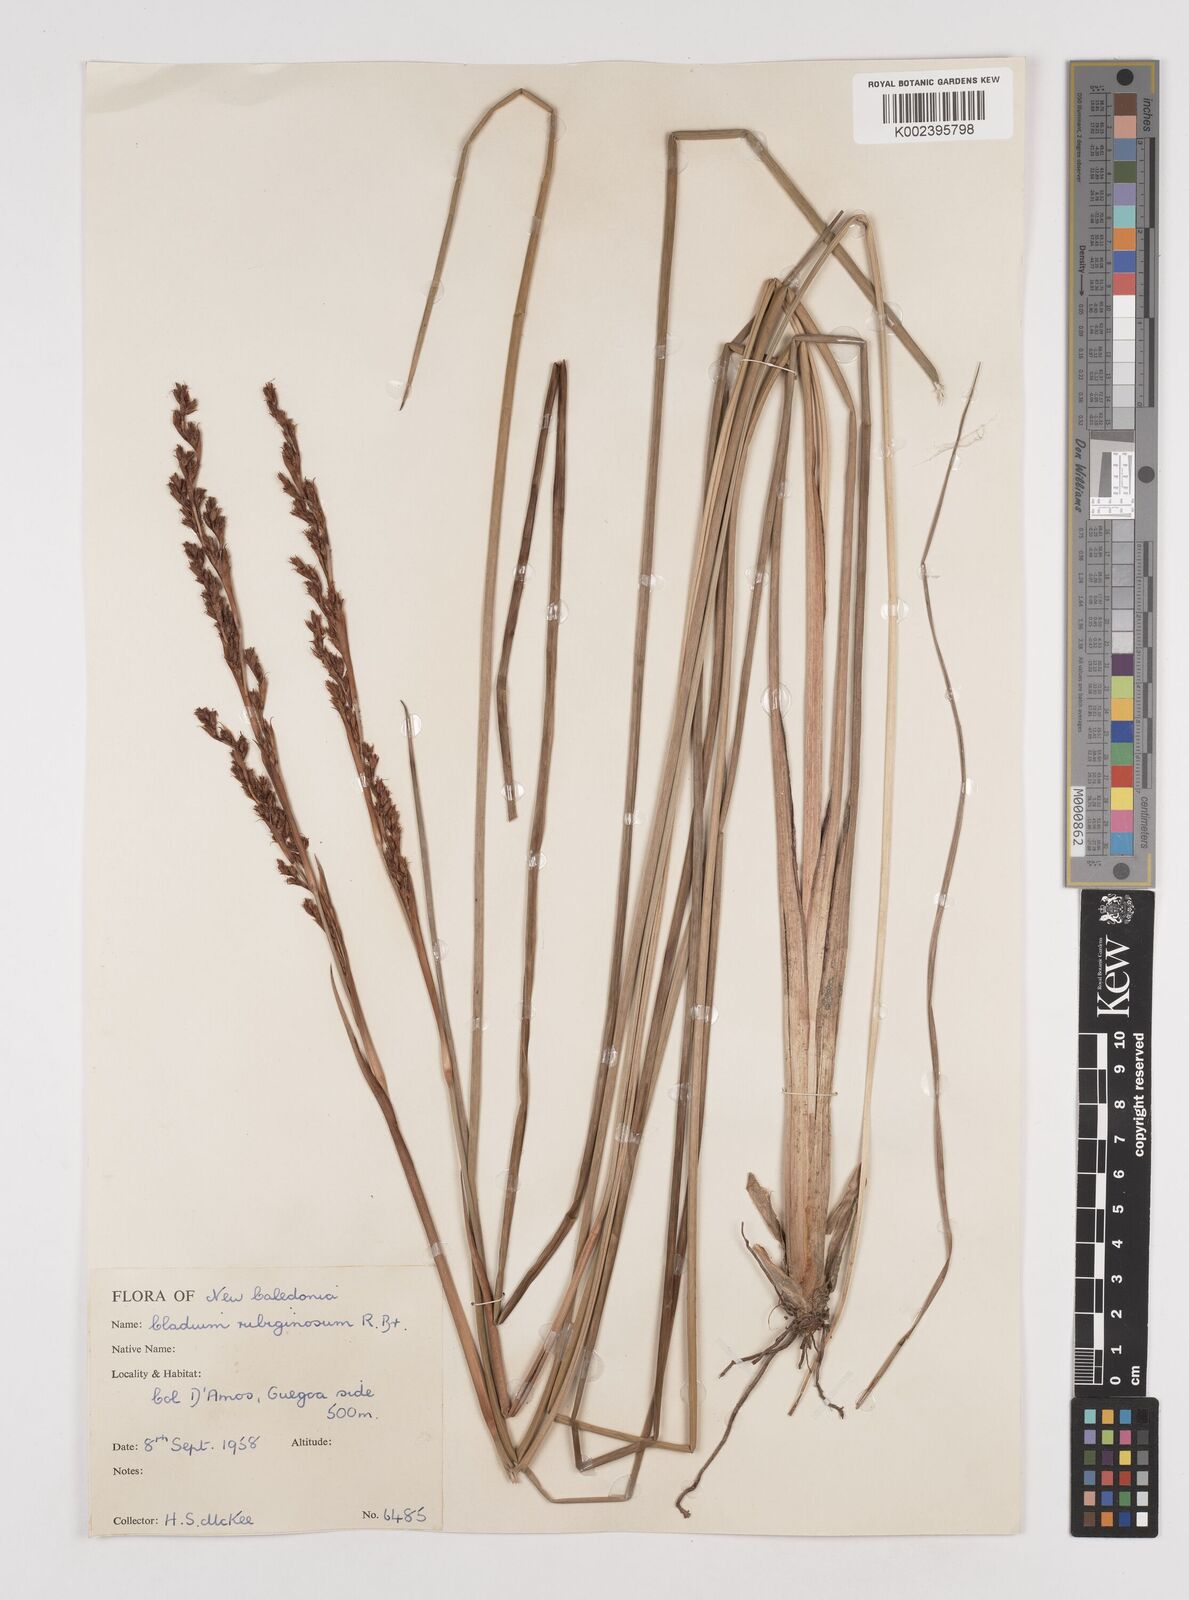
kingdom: Plantae
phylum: Tracheophyta
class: Liliopsida
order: Poales
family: Cyperaceae
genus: Machaerina
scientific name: Machaerina rubiginosa
